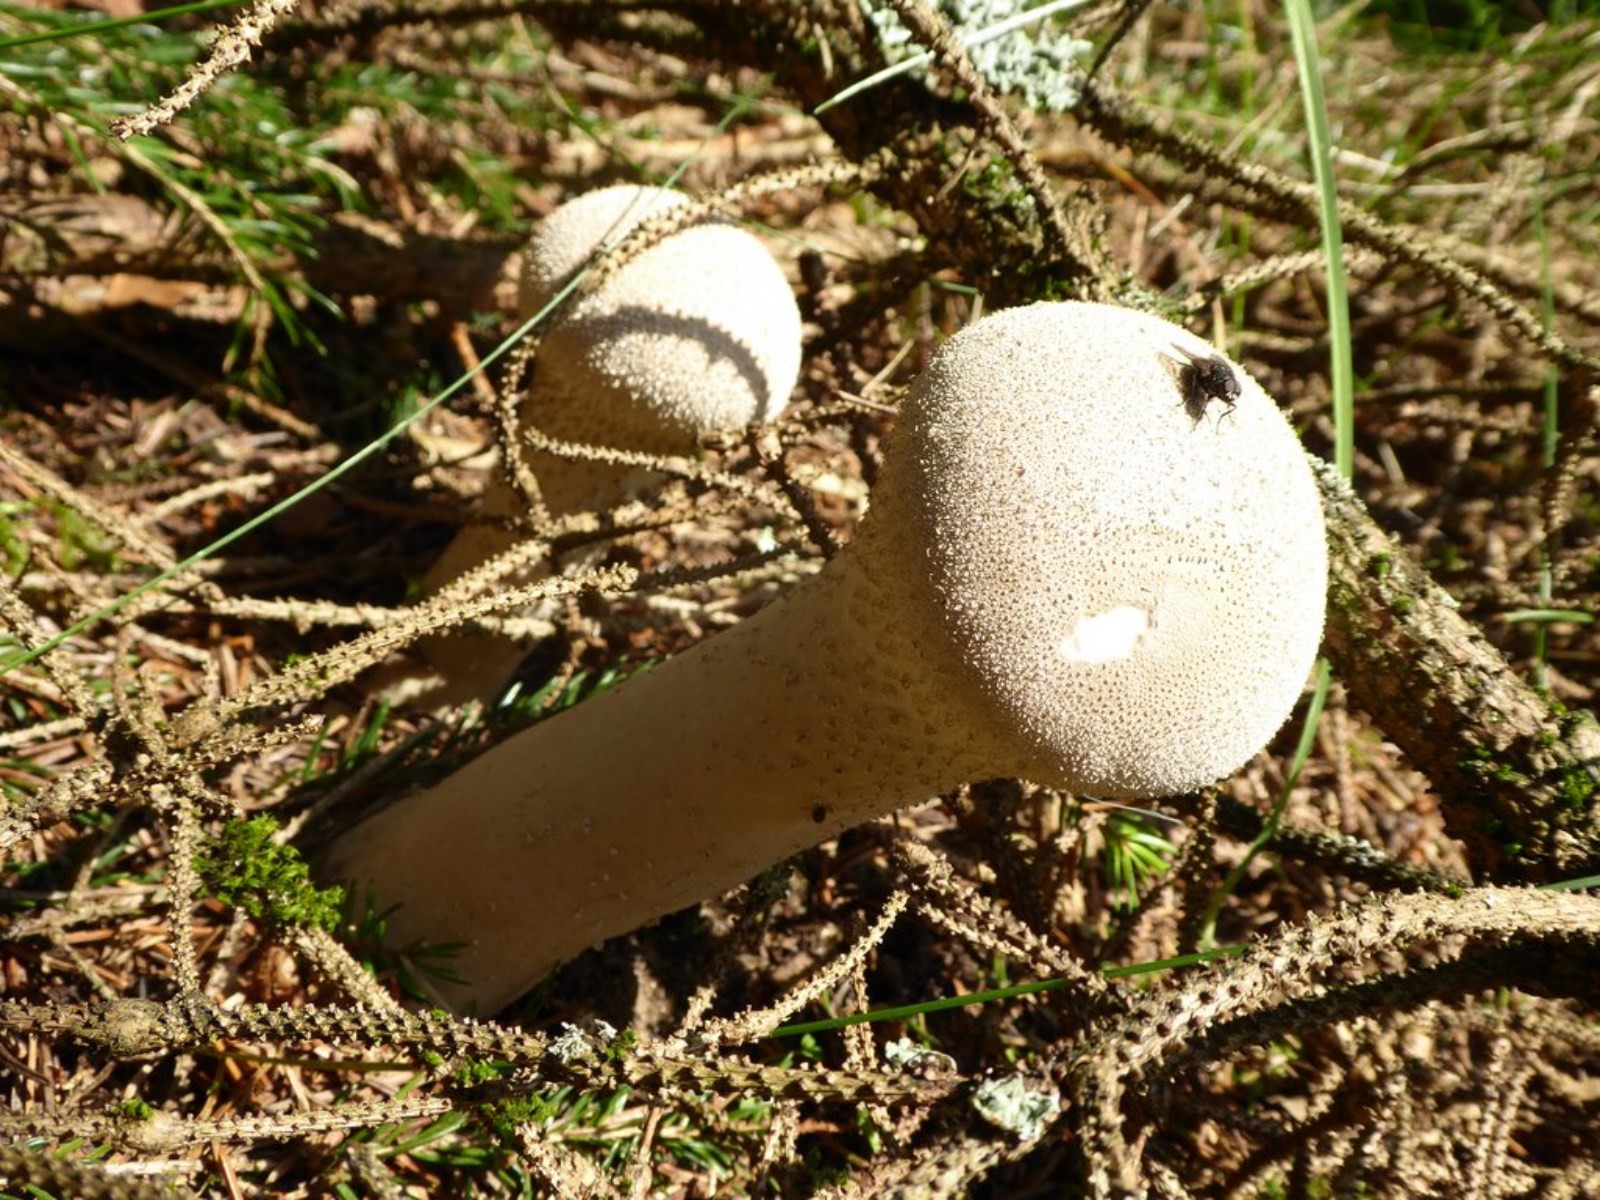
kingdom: Fungi
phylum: Basidiomycota
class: Agaricomycetes
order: Agaricales
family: Lycoperdaceae
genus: Lycoperdon
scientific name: Lycoperdon excipuliforme
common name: højstokket støvbold
